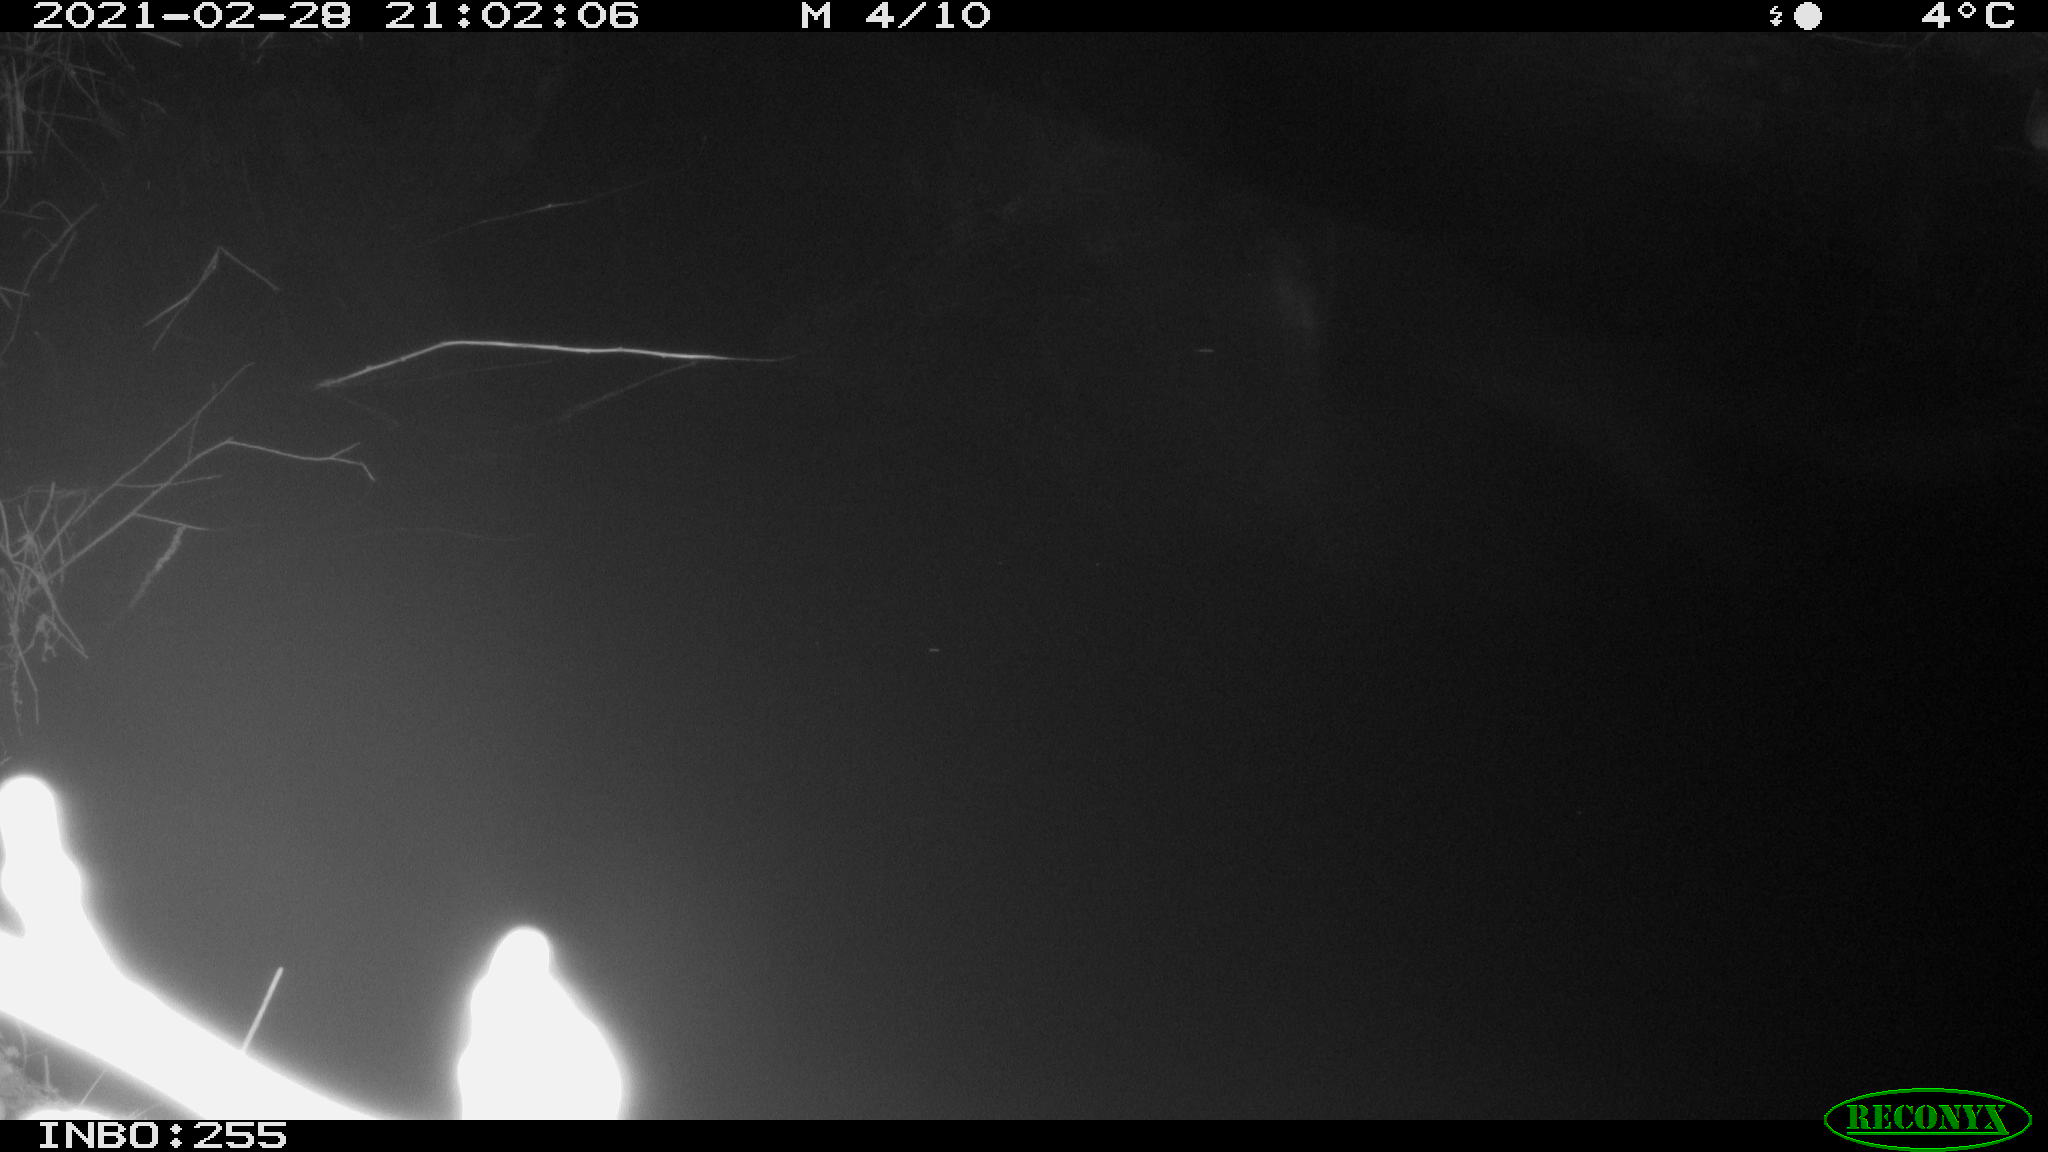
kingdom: Animalia
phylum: Chordata
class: Mammalia
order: Rodentia
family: Muridae
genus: Rattus
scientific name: Rattus norvegicus
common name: Brown rat
